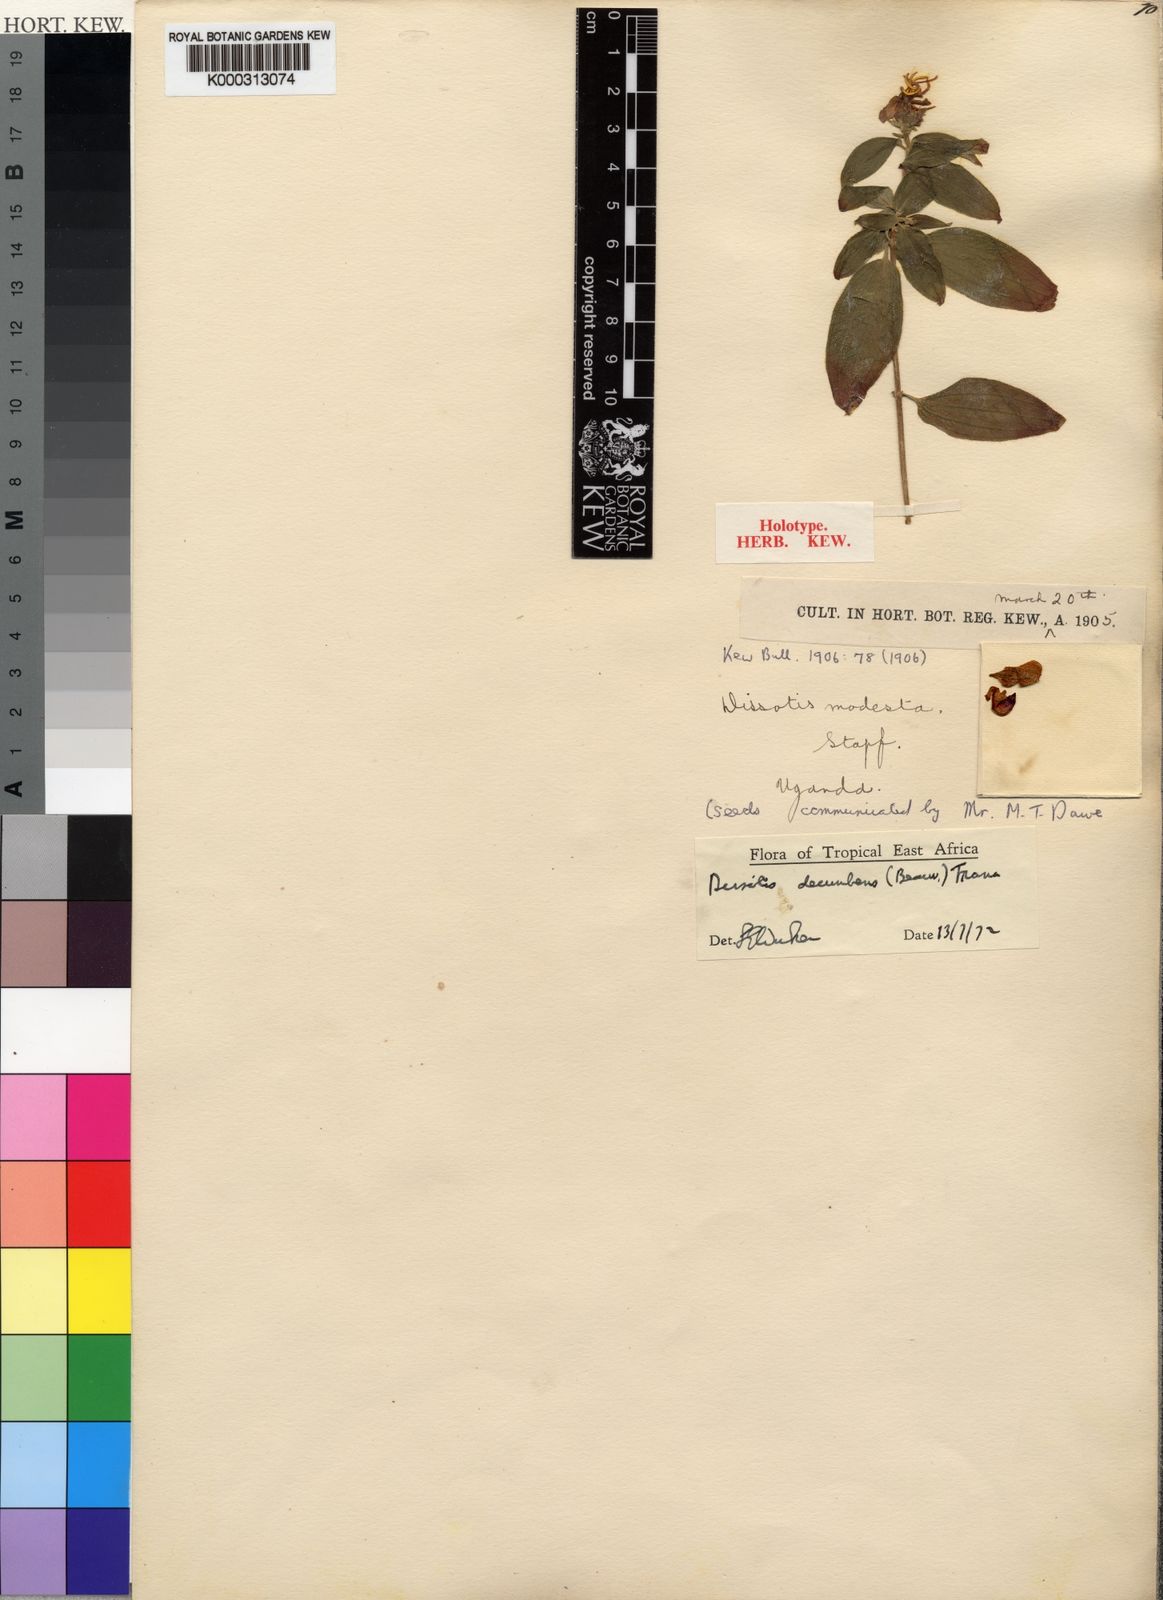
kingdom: Plantae
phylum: Tracheophyta
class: Magnoliopsida
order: Myrtales
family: Melastomataceae
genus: Heterotis
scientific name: Heterotis
